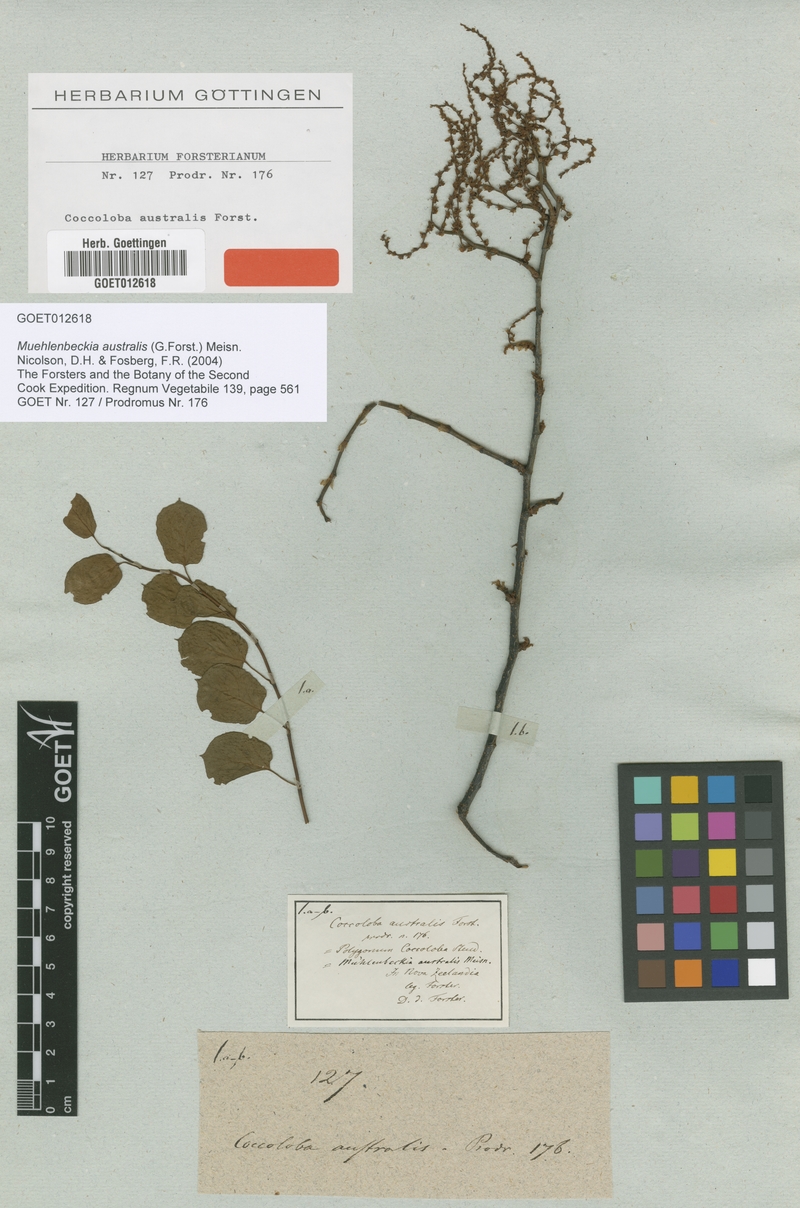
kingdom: Plantae
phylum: Tracheophyta
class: Magnoliopsida
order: Caryophyllales
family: Polygonaceae
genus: Muehlenbeckia
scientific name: Muehlenbeckia australis
